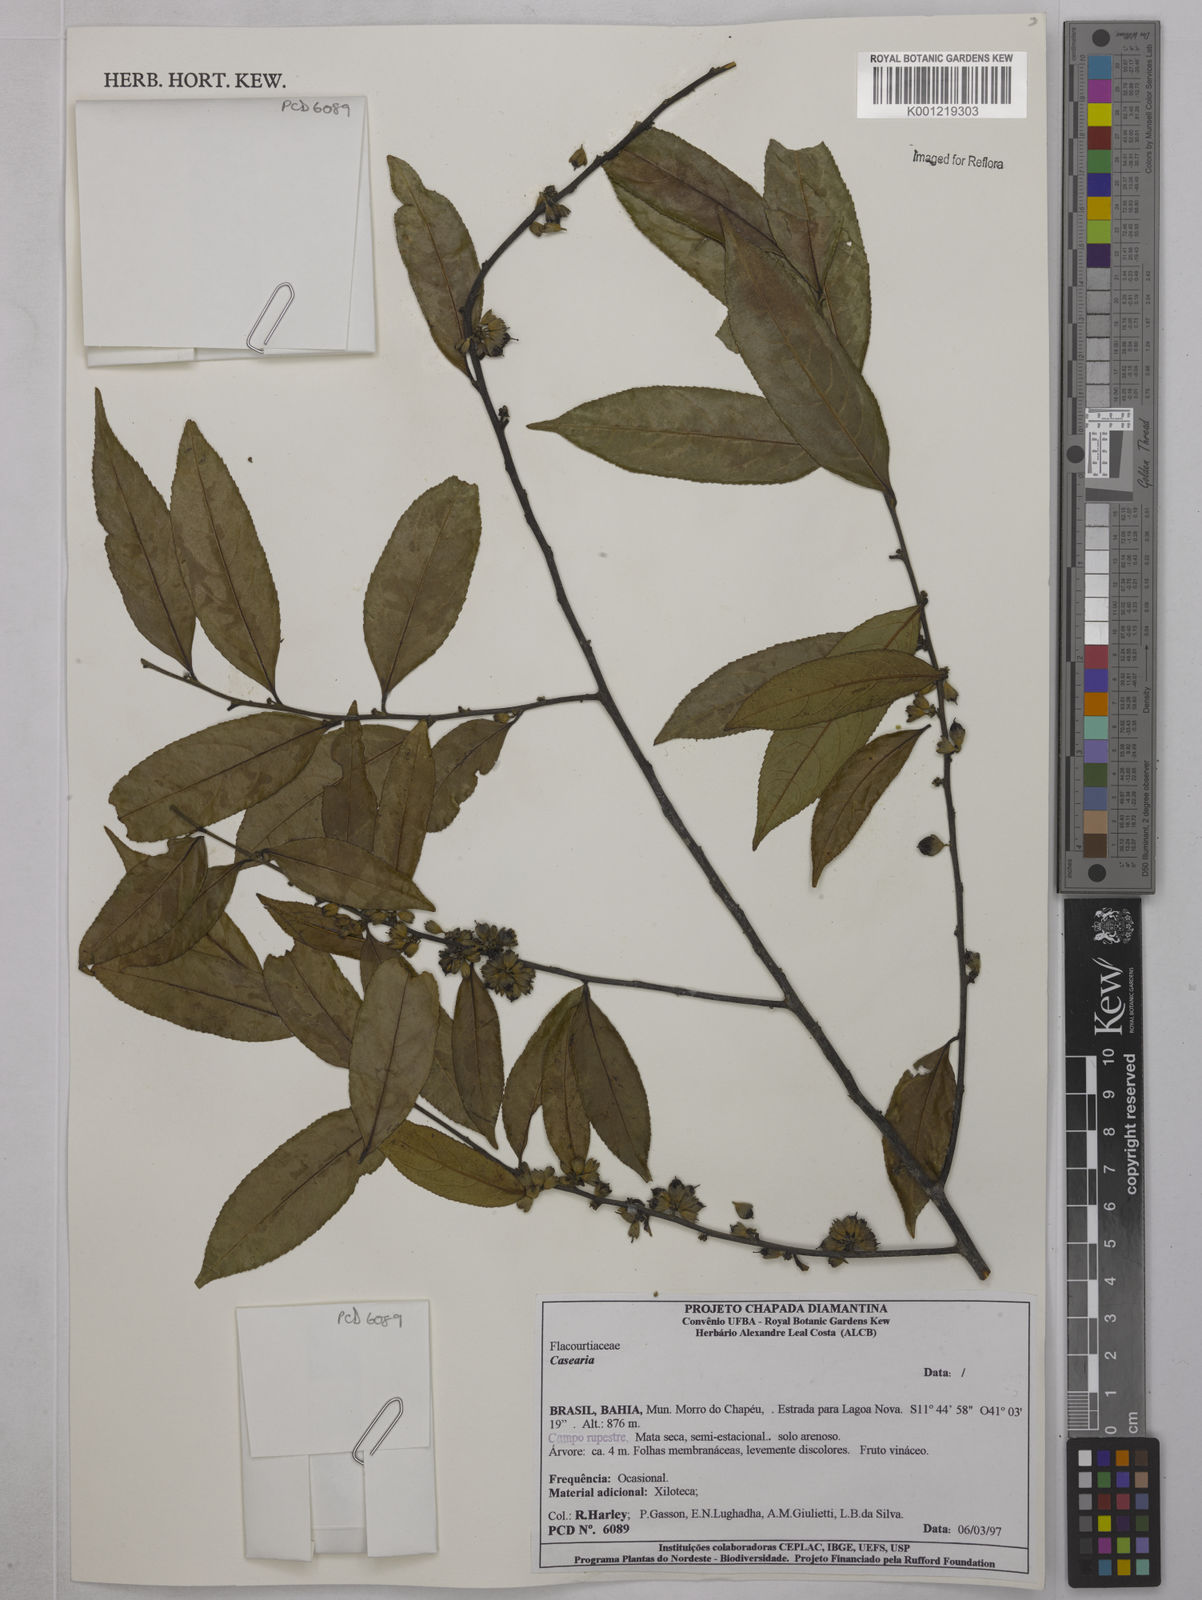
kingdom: Plantae
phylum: Tracheophyta
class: Magnoliopsida
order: Malpighiales
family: Salicaceae
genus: Casearia
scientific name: Casearia
